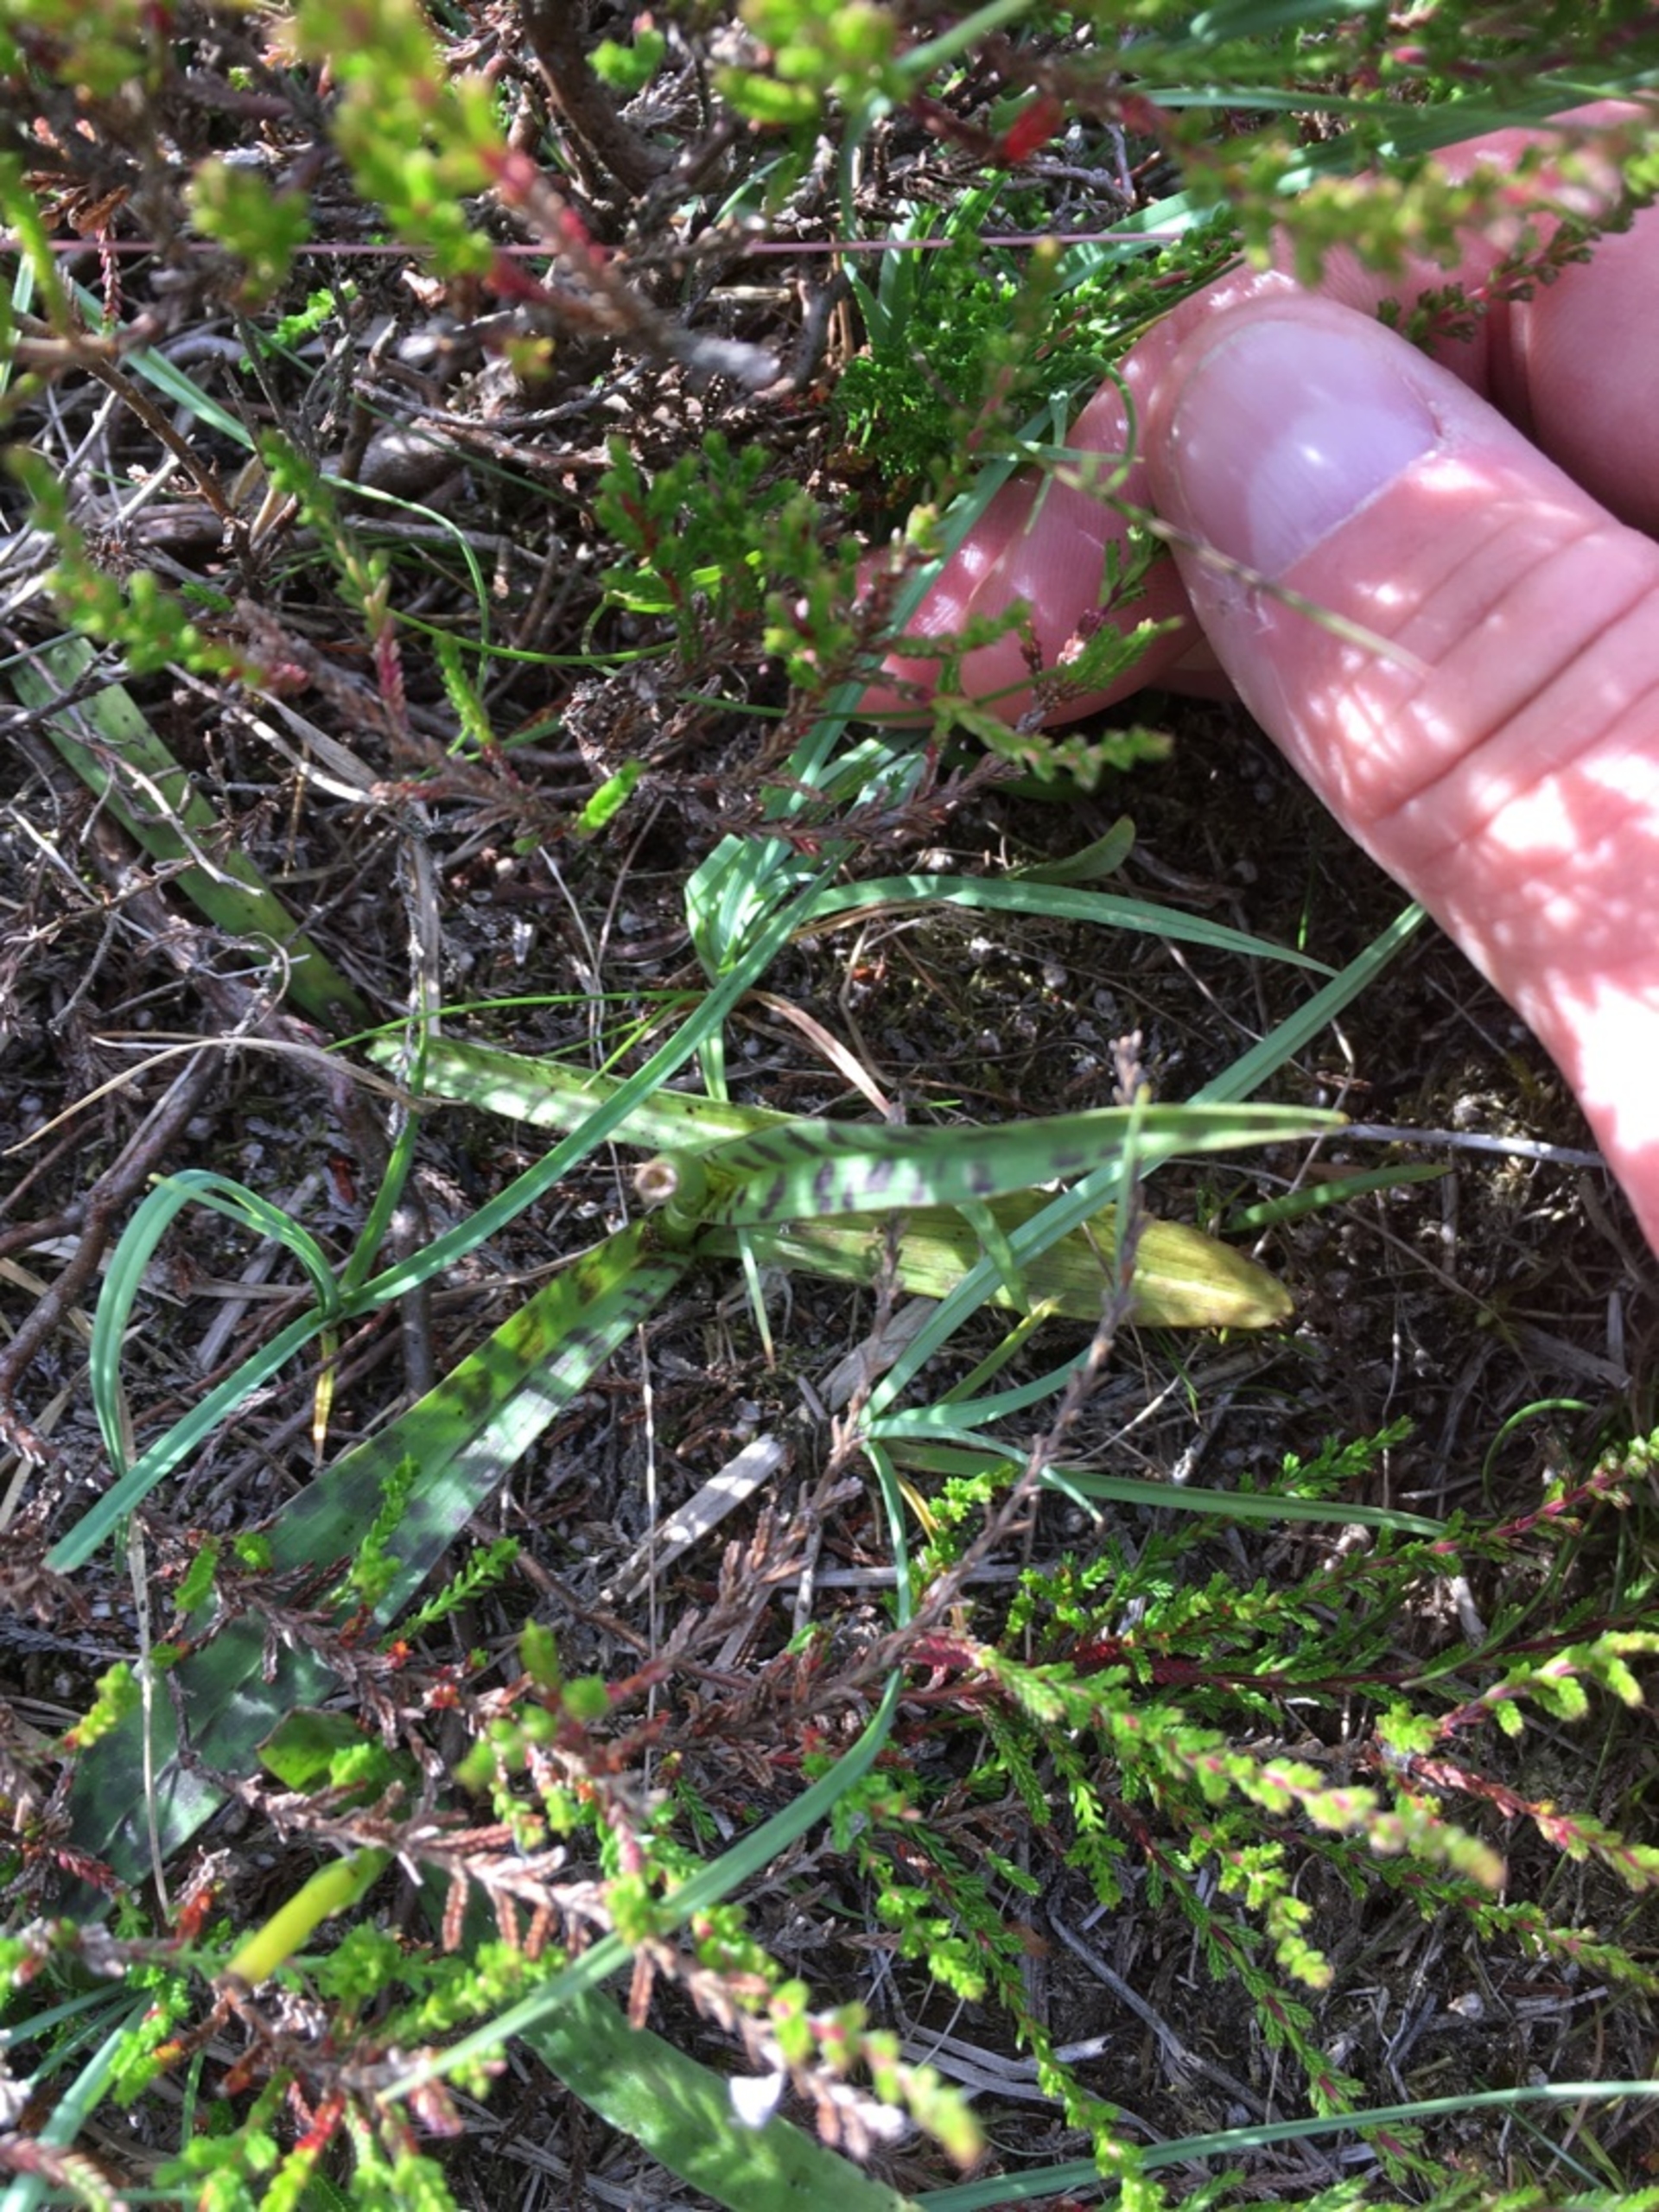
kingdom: Plantae
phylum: Tracheophyta
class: Liliopsida
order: Asparagales
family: Orchidaceae
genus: Dactylorhiza
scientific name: Dactylorhiza maculata
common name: Plettet gøgeurt
